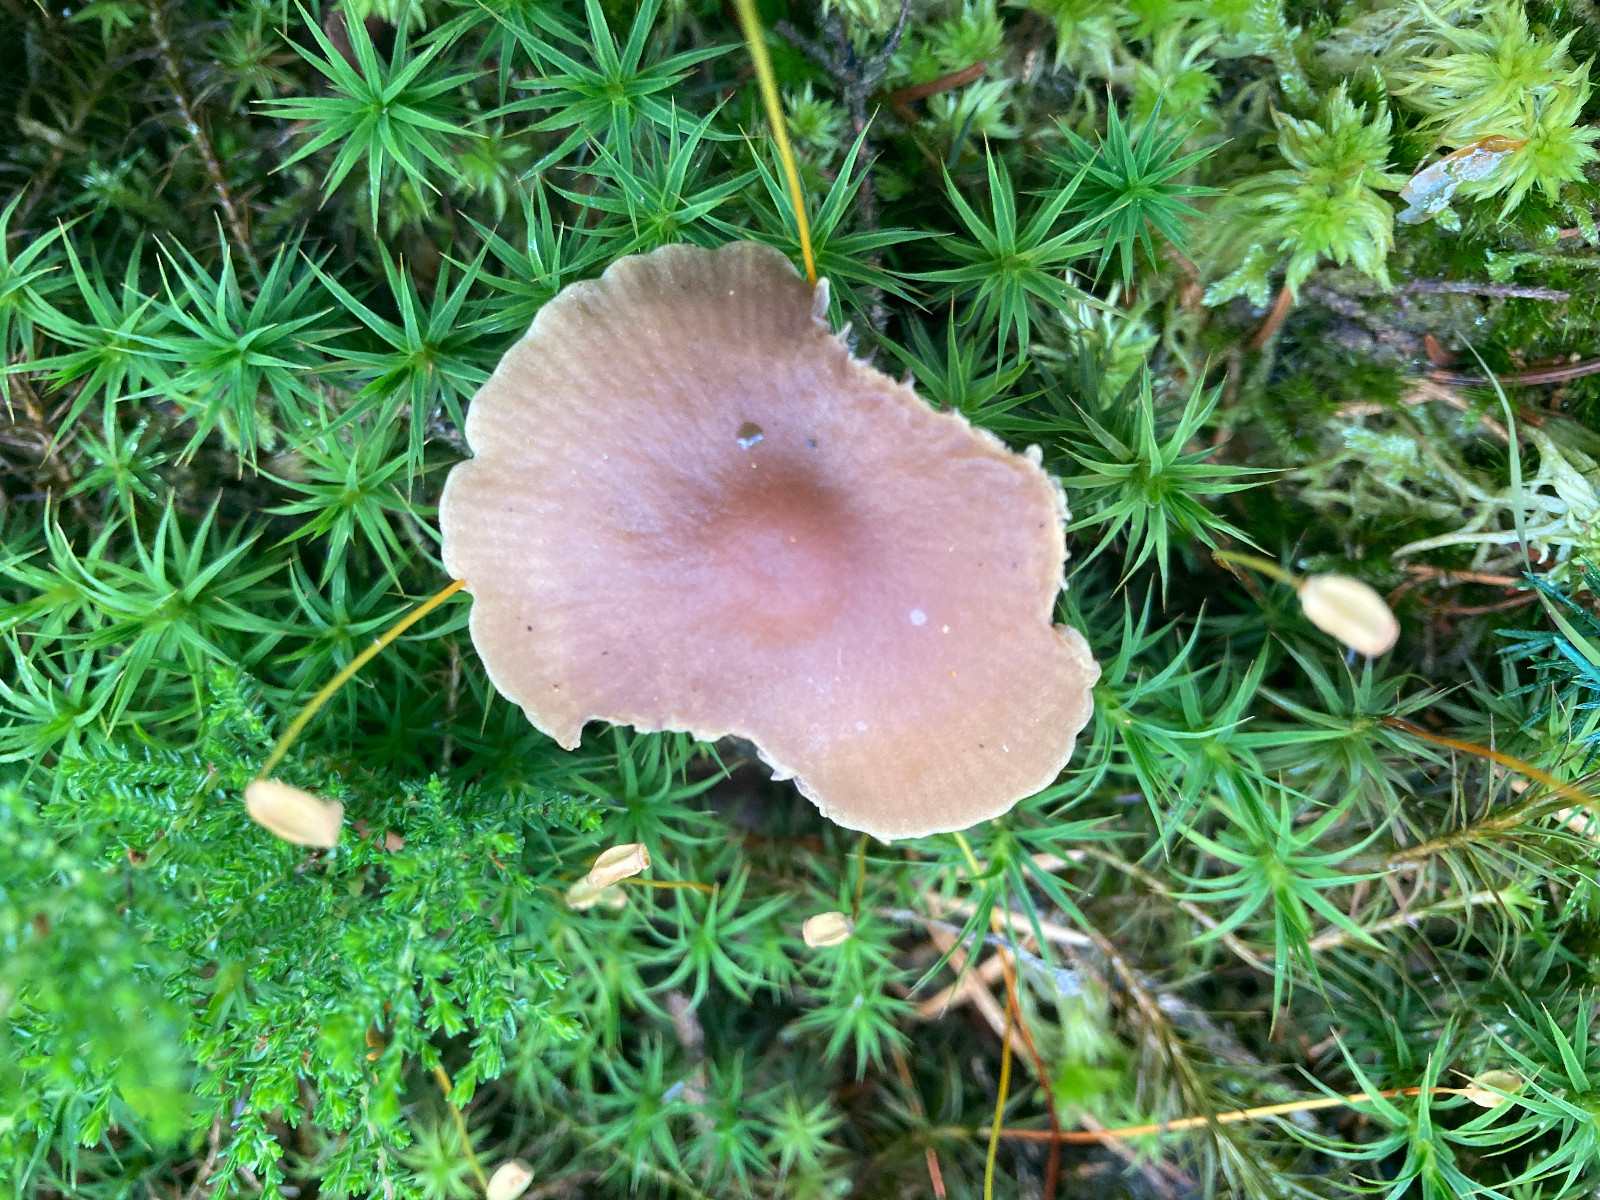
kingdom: Fungi
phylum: Basidiomycota
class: Agaricomycetes
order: Agaricales
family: Strophariaceae
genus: Bogbodia
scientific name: Bogbodia uda
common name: tørve-svovlhat
